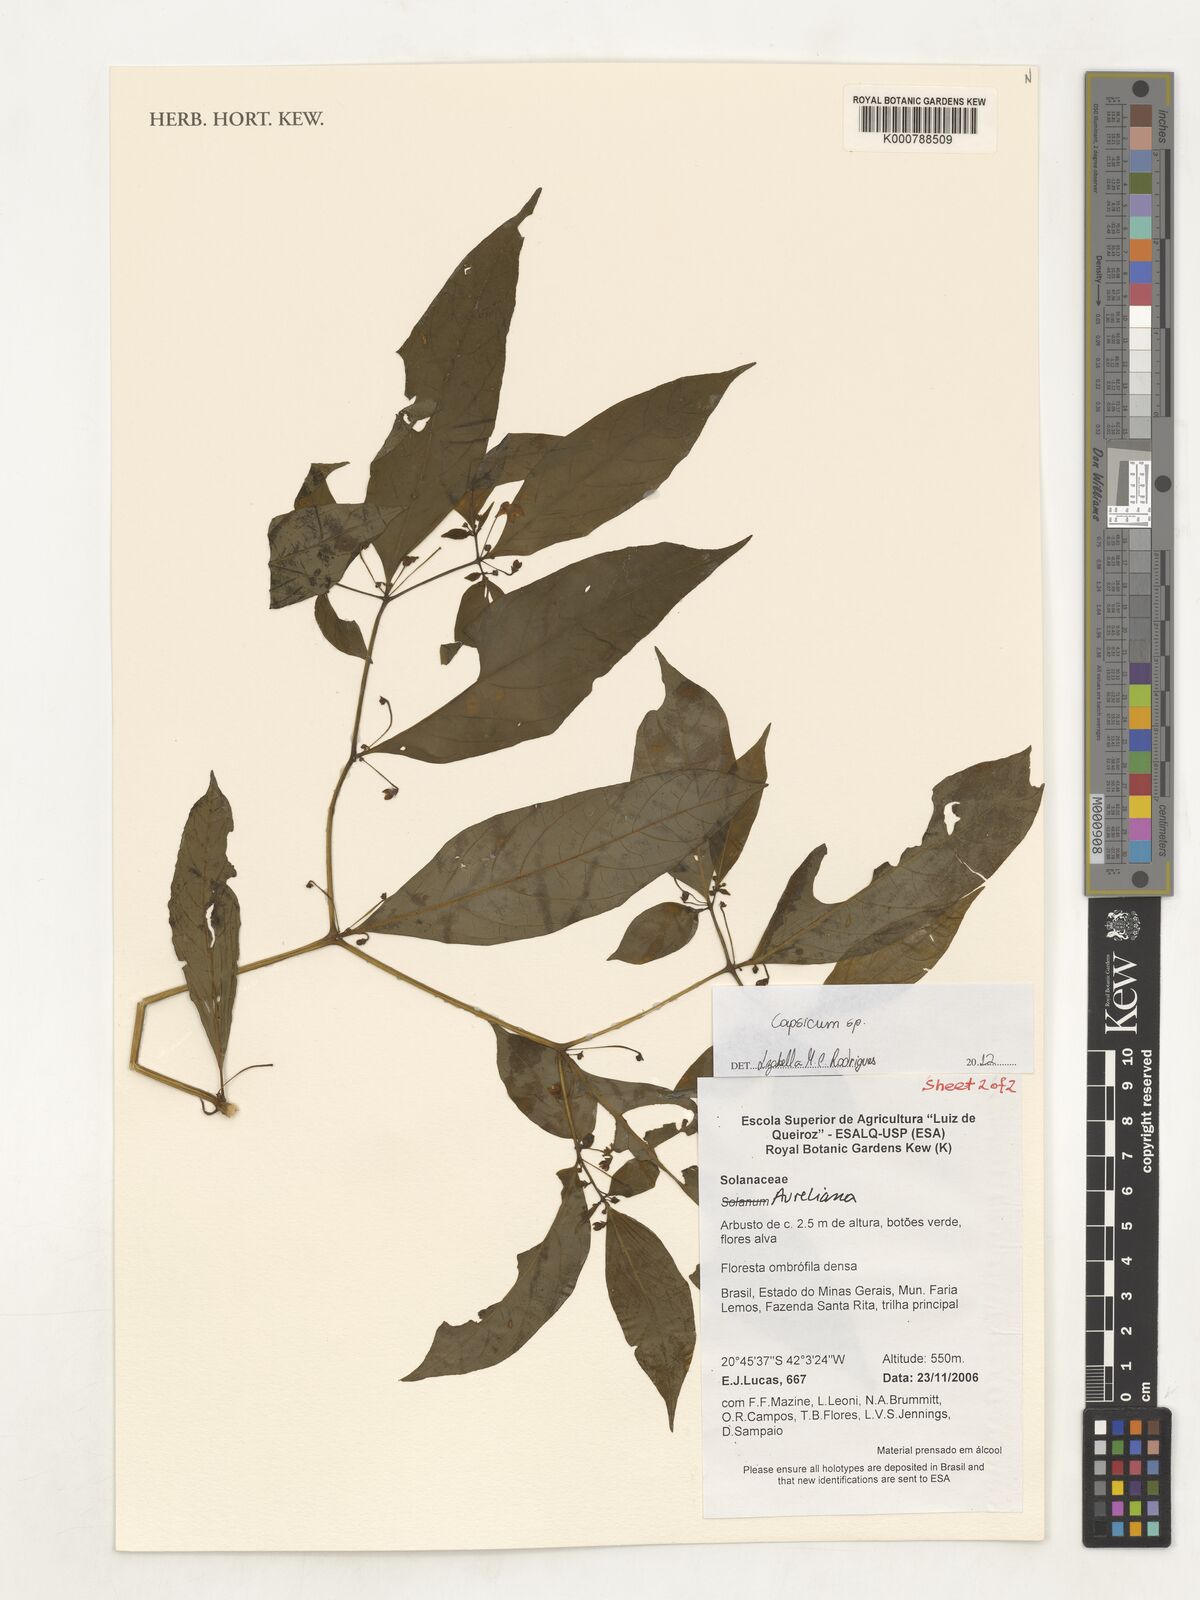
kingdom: Plantae
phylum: Tracheophyta
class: Magnoliopsida
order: Solanales
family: Solanaceae
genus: Capsicum
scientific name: Capsicum
